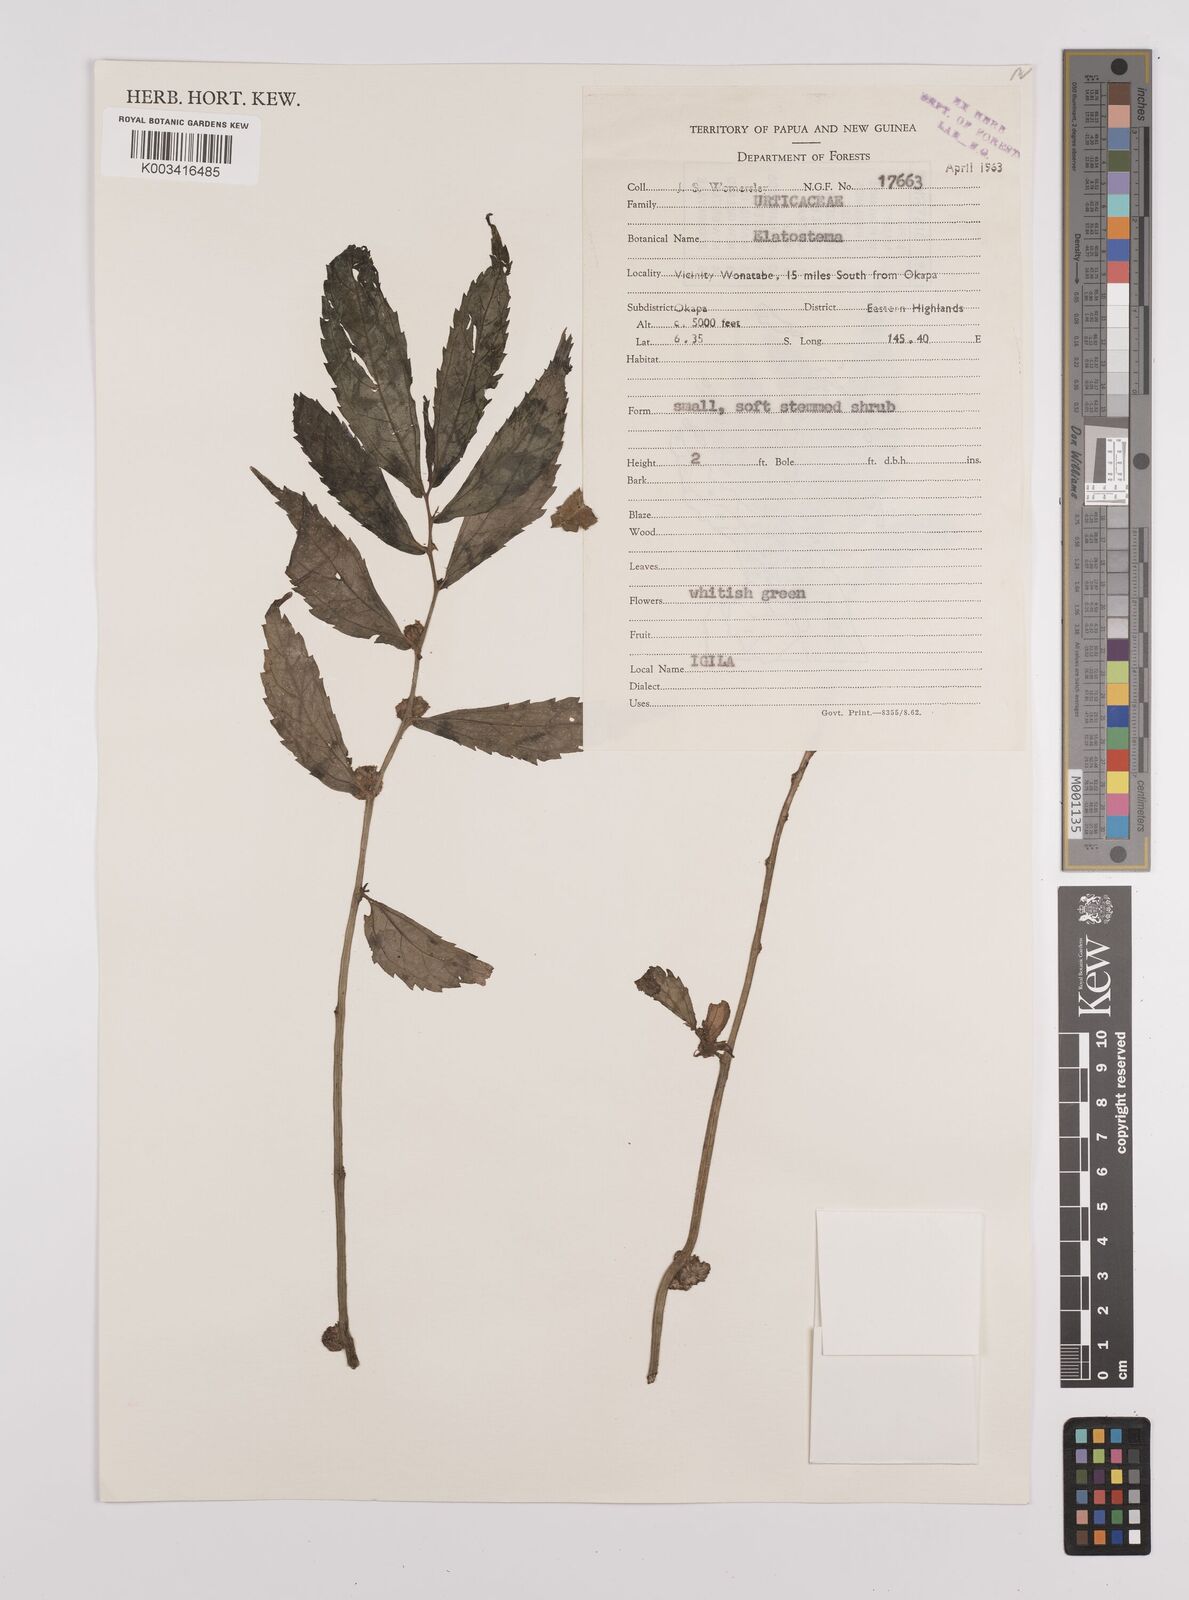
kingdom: Plantae
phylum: Tracheophyta
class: Magnoliopsida
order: Rosales
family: Urticaceae
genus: Elatostema
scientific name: Elatostema
